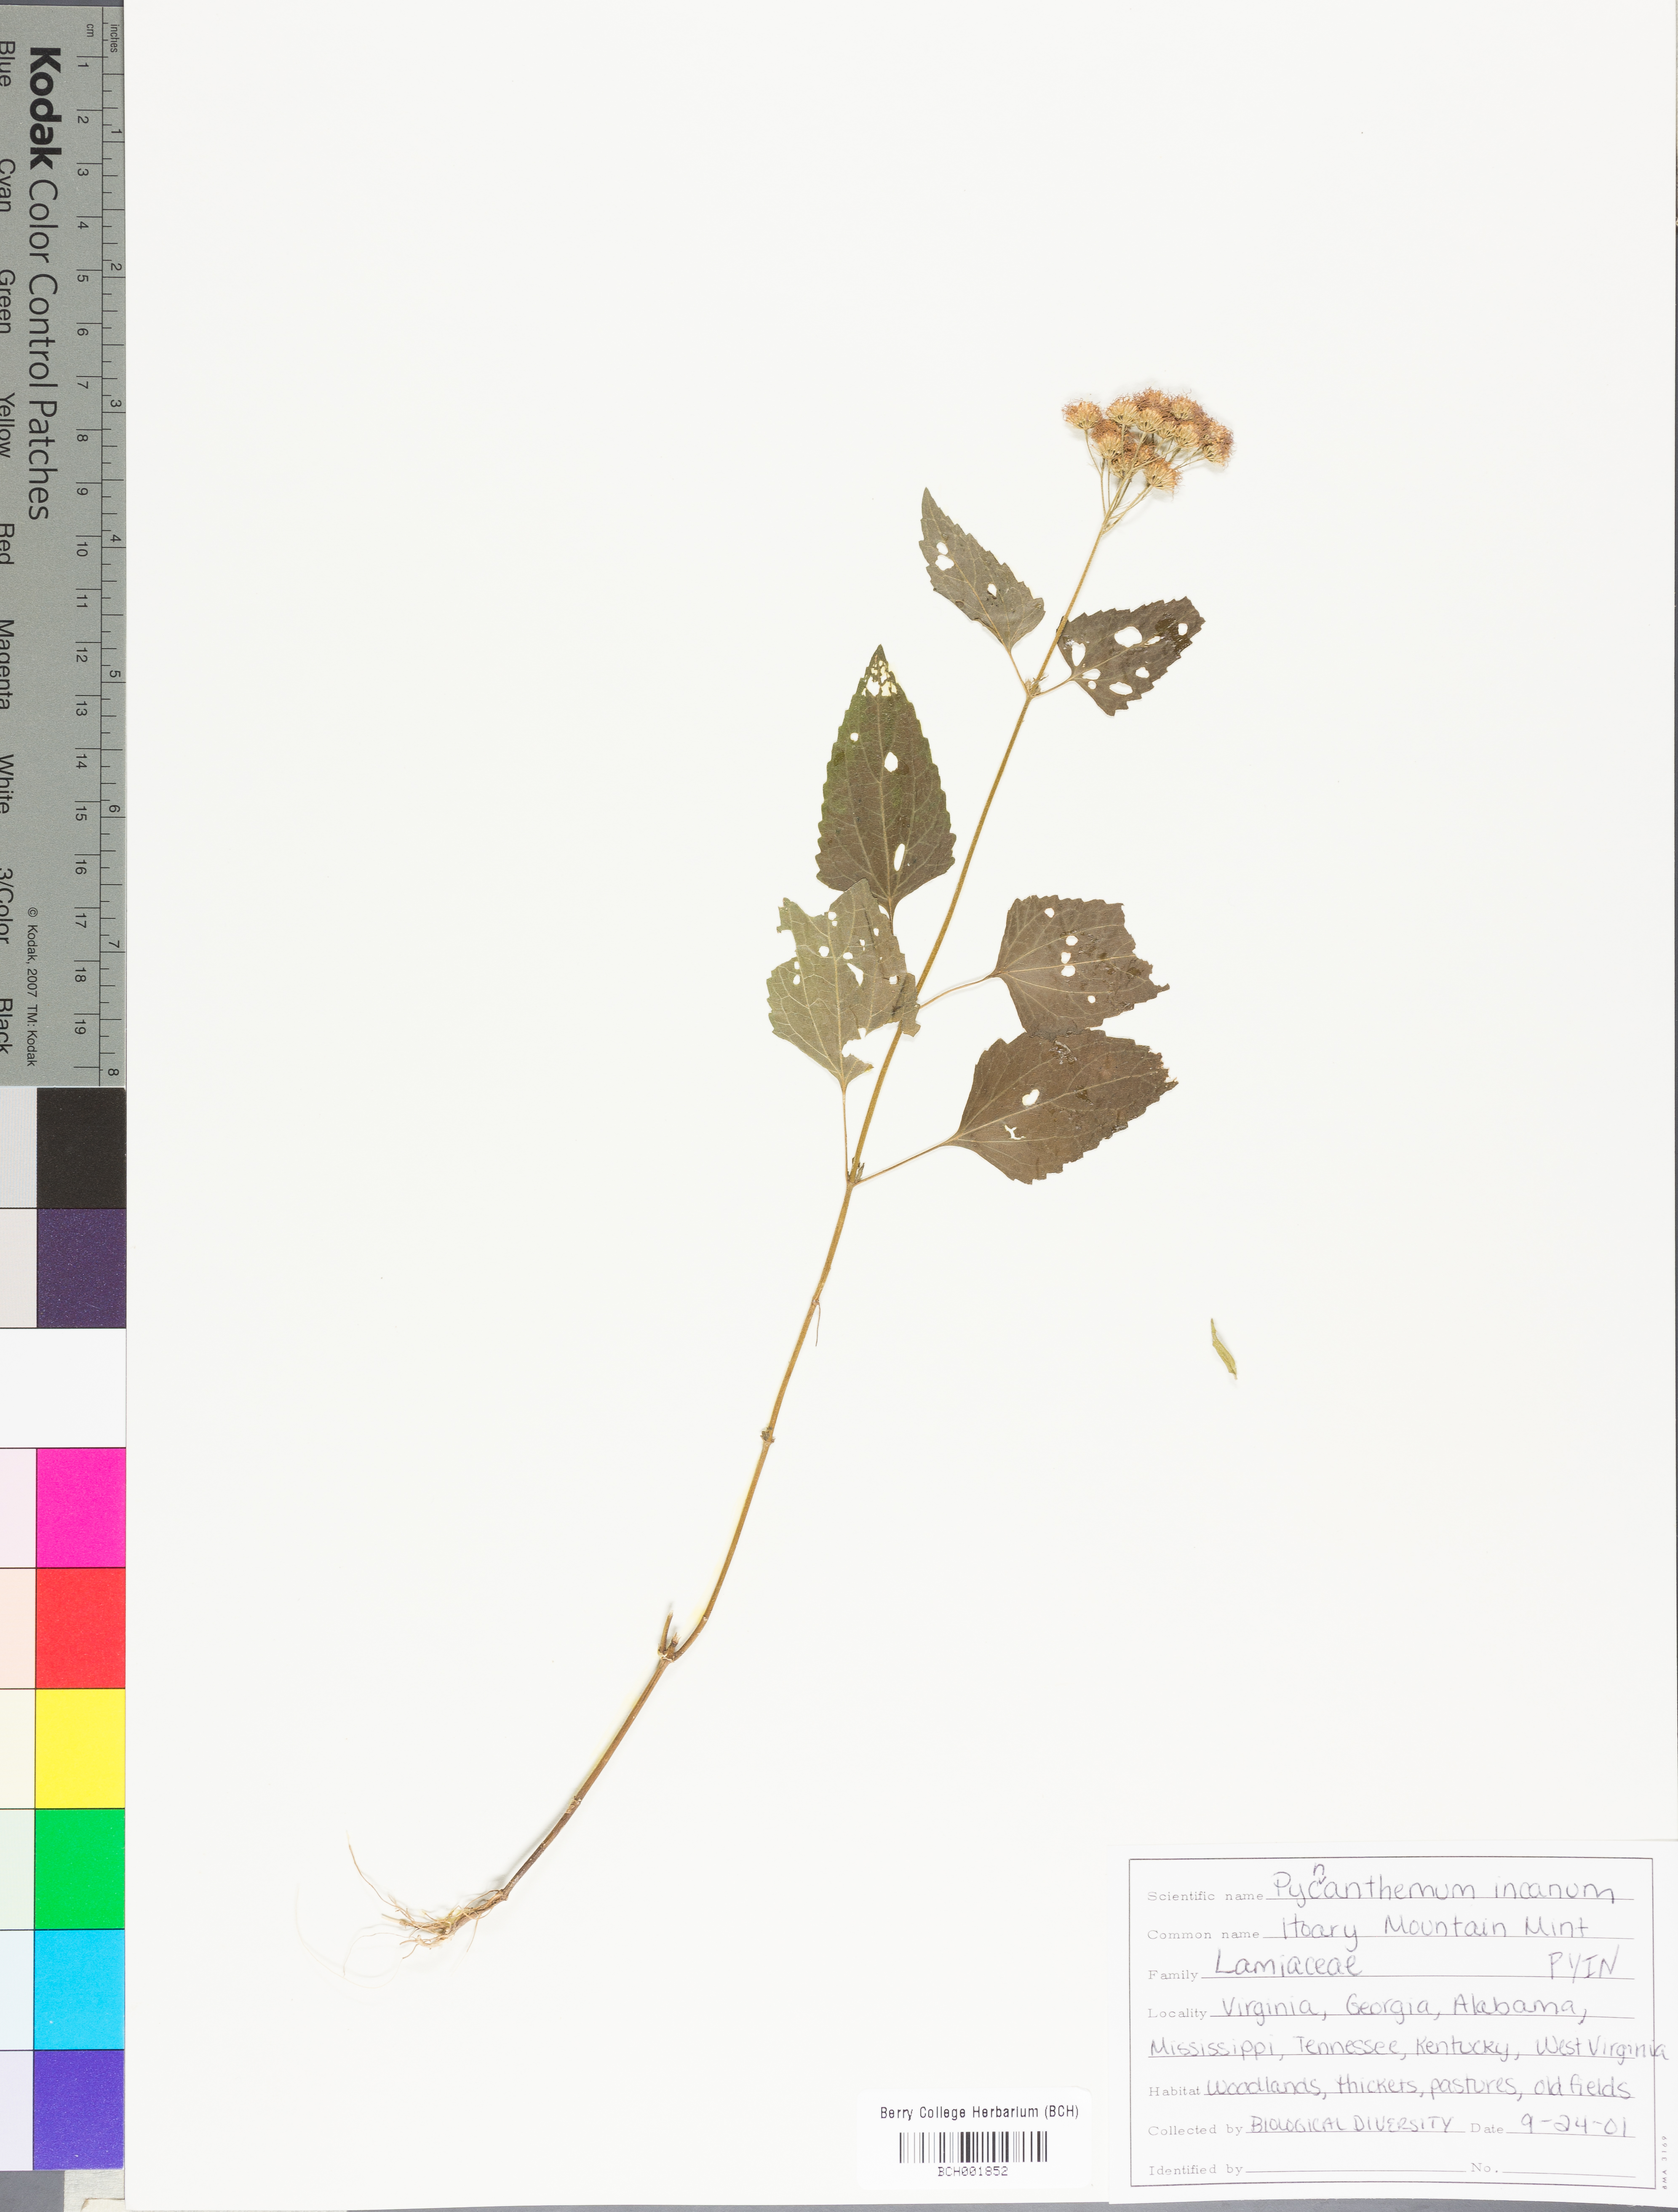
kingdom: Plantae
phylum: Tracheophyta
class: Magnoliopsida
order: Lamiales
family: Lamiaceae
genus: Pycnanthemum
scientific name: Pycnanthemum incanum
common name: Hoary mountain-mint
